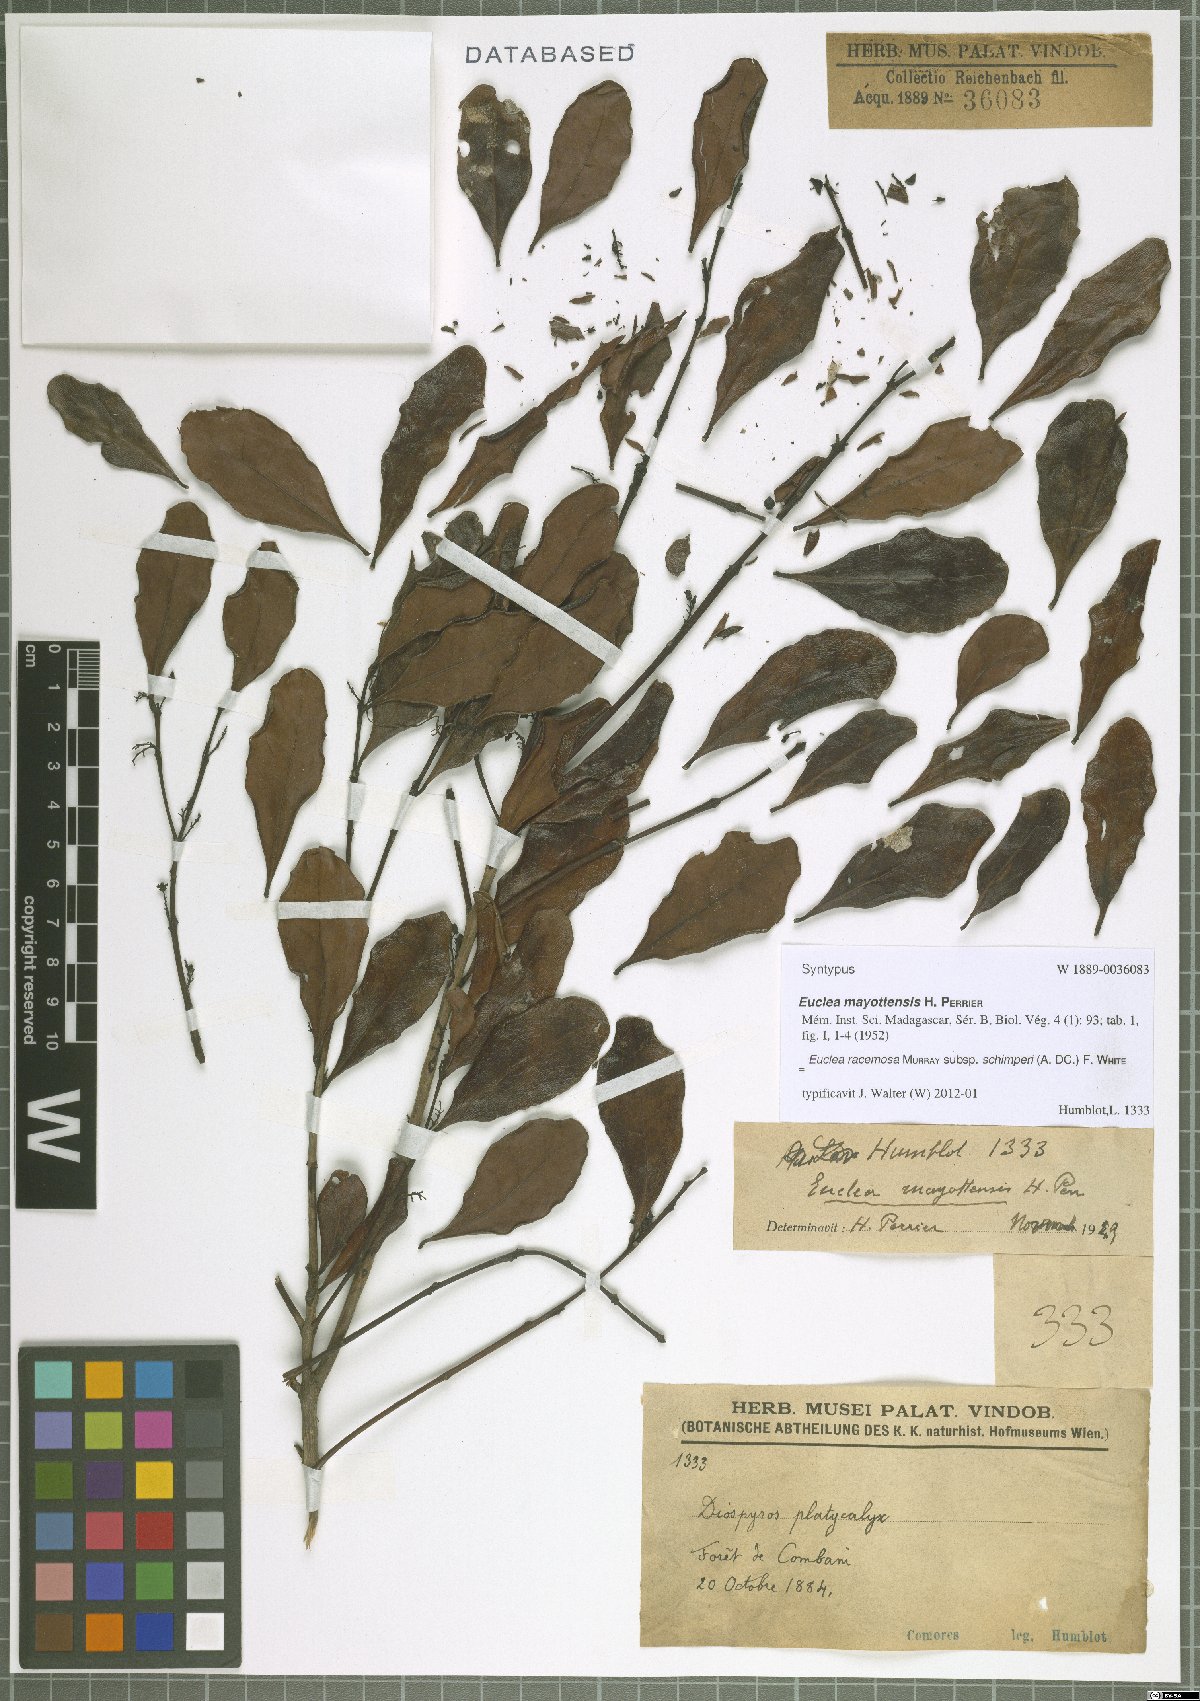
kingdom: Plantae
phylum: Tracheophyta
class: Magnoliopsida
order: Ericales
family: Ebenaceae
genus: Euclea
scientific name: Euclea racemosa
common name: Dune guarri
